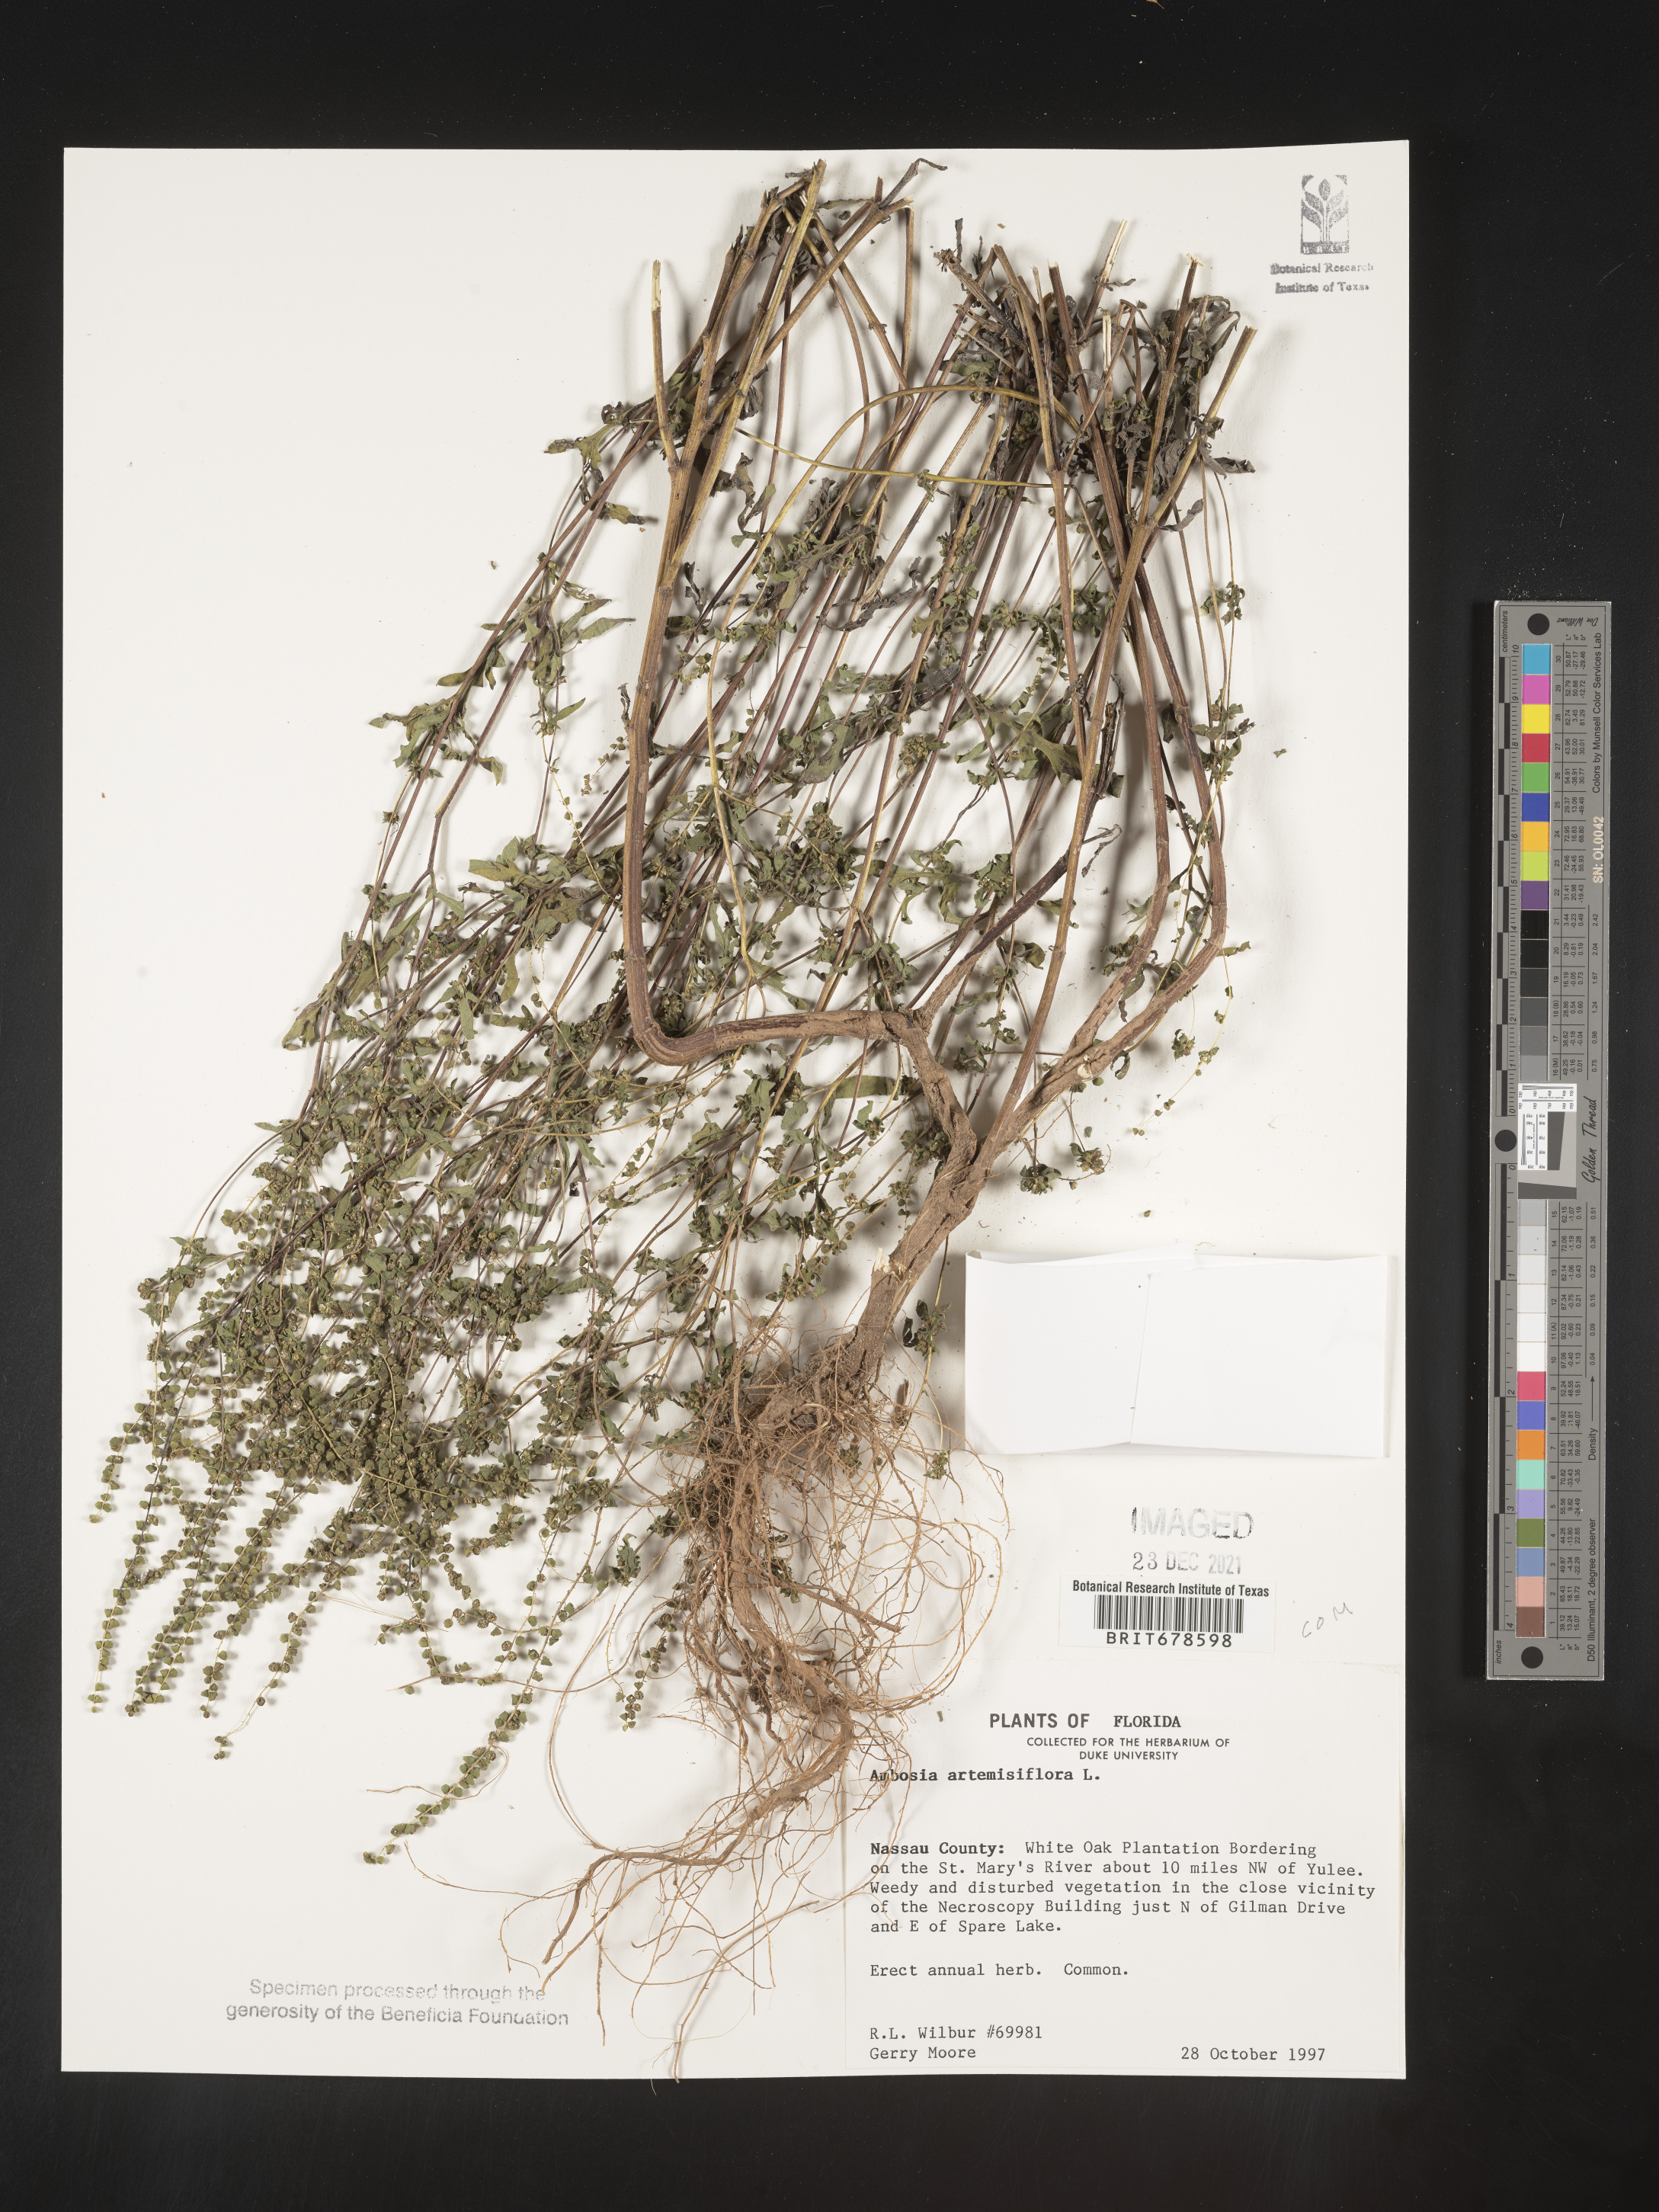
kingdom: Plantae
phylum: Tracheophyta
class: Magnoliopsida
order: Asterales
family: Asteraceae
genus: Ambrosia
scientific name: Ambrosia polystachya
